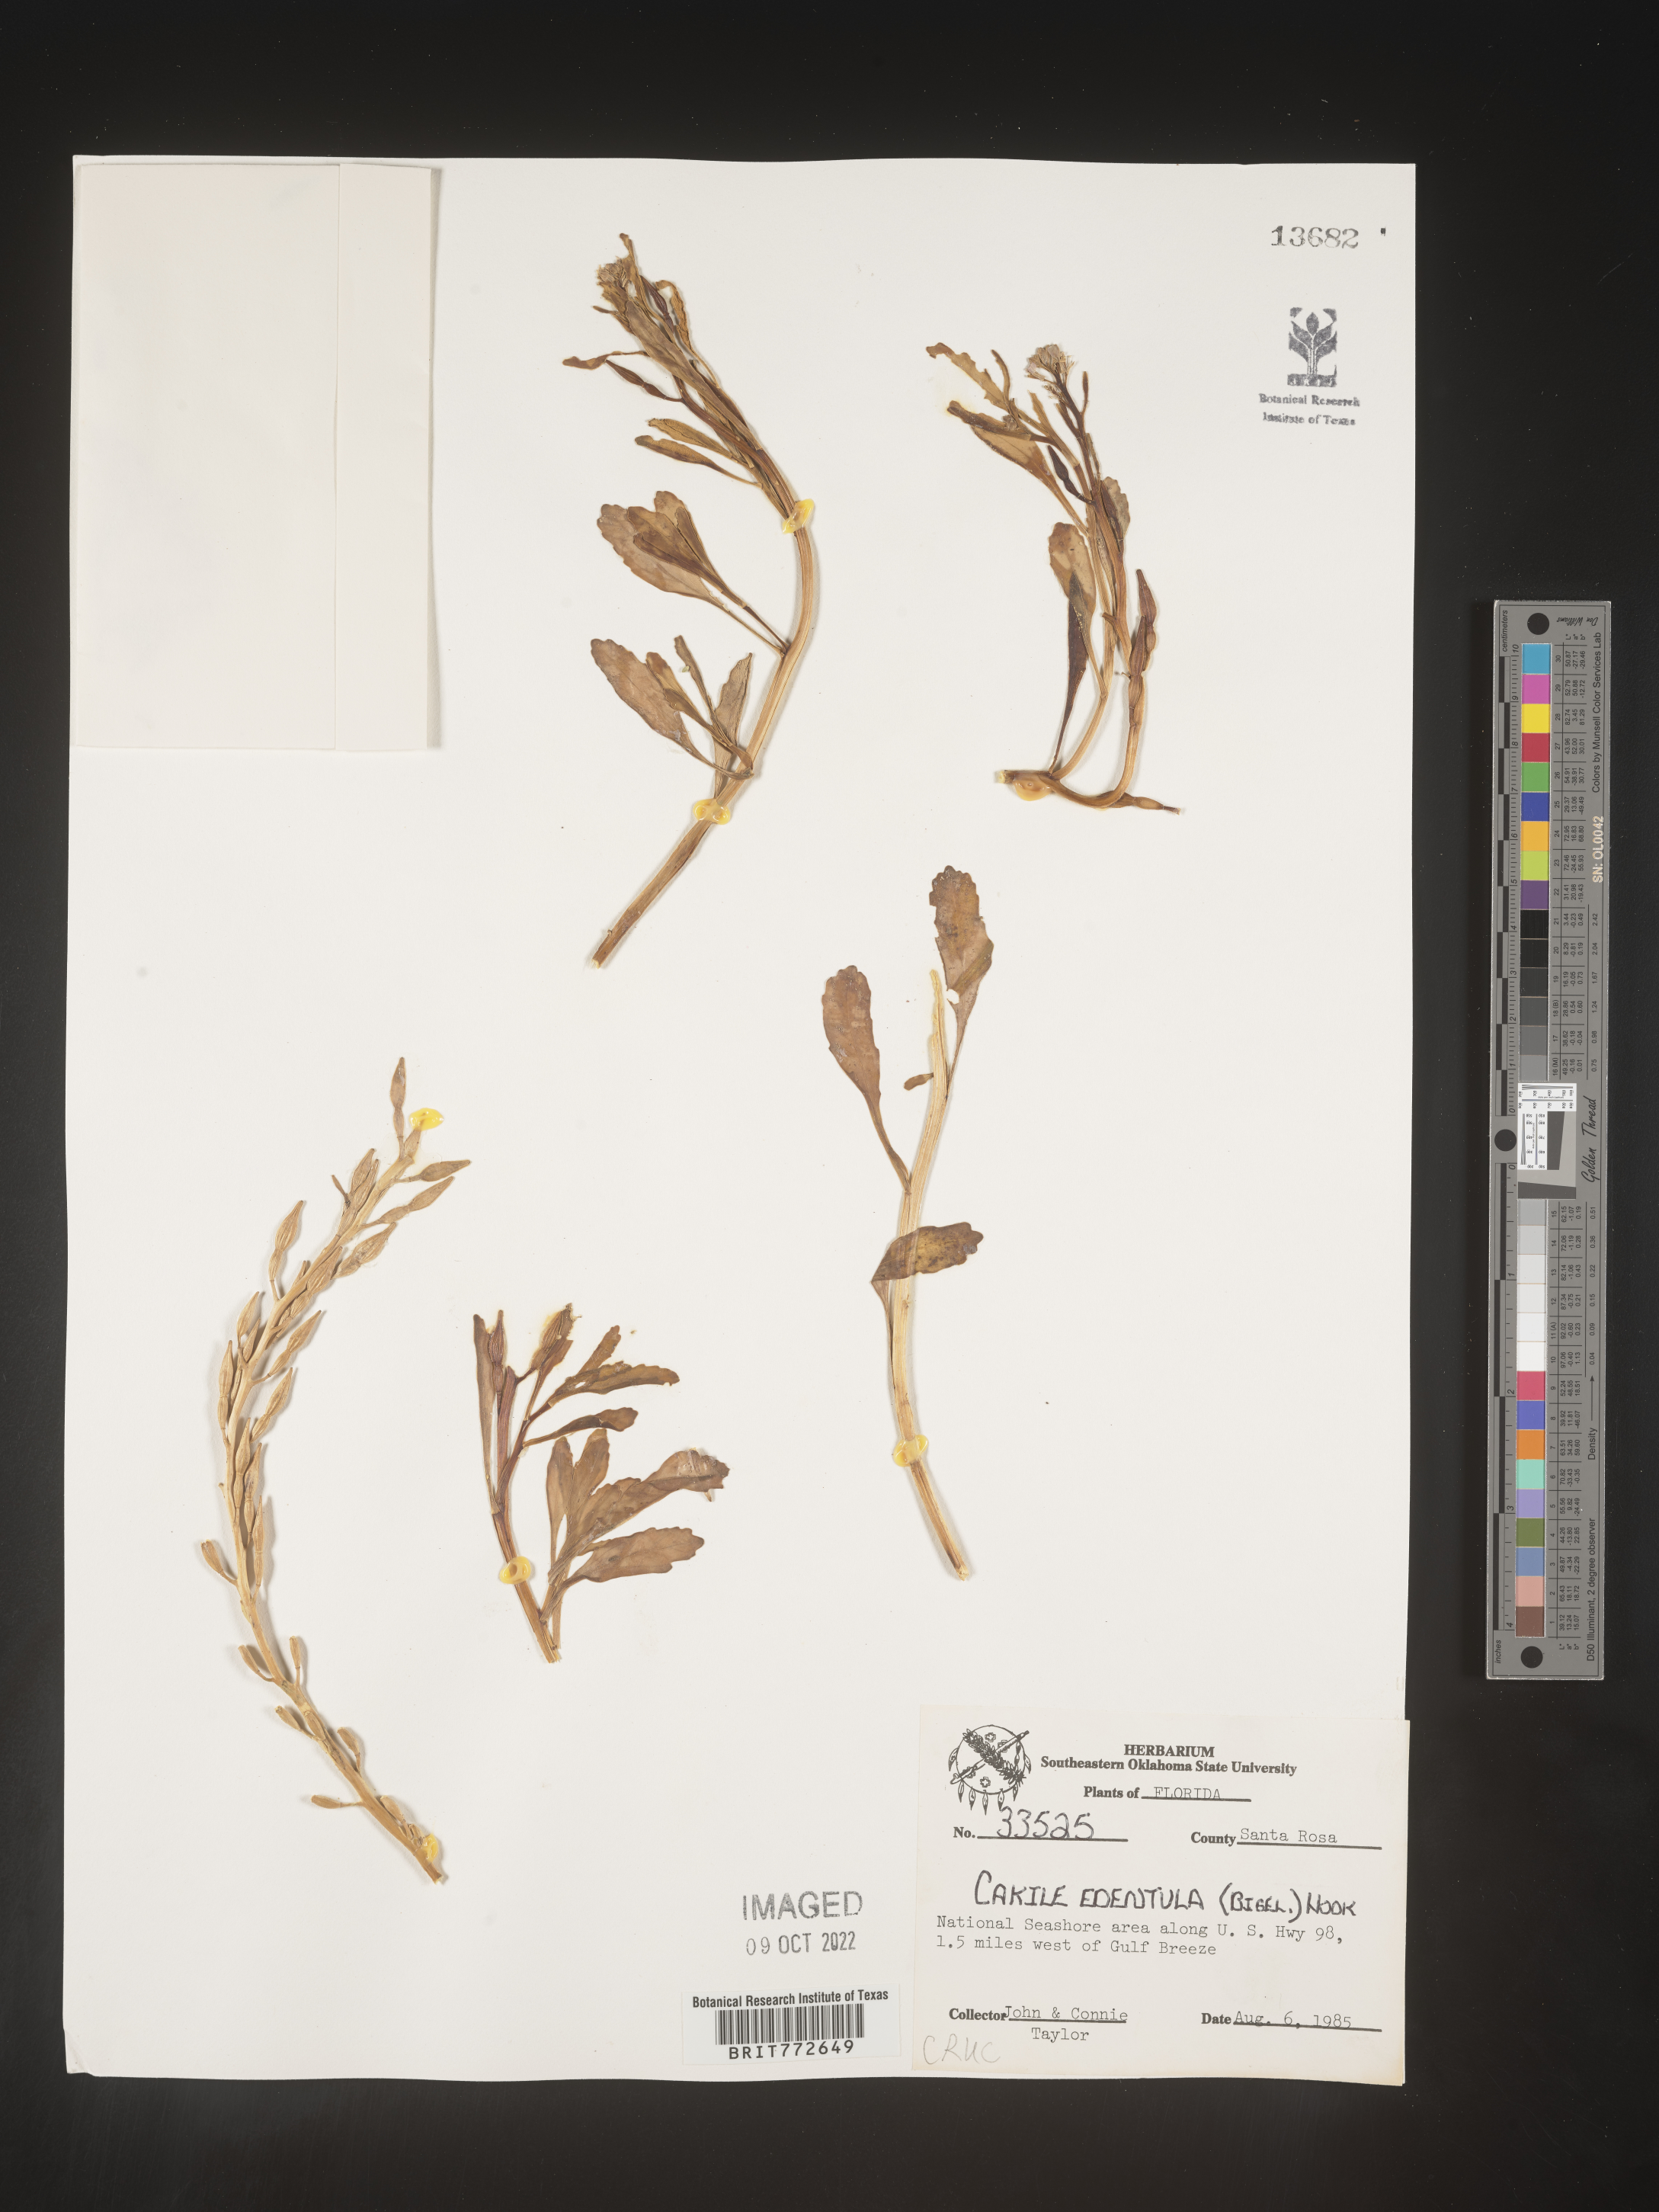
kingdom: Plantae
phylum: Tracheophyta
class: Magnoliopsida
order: Brassicales
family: Brassicaceae
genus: Cakile
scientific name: Cakile edentula
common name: American sea rocket
